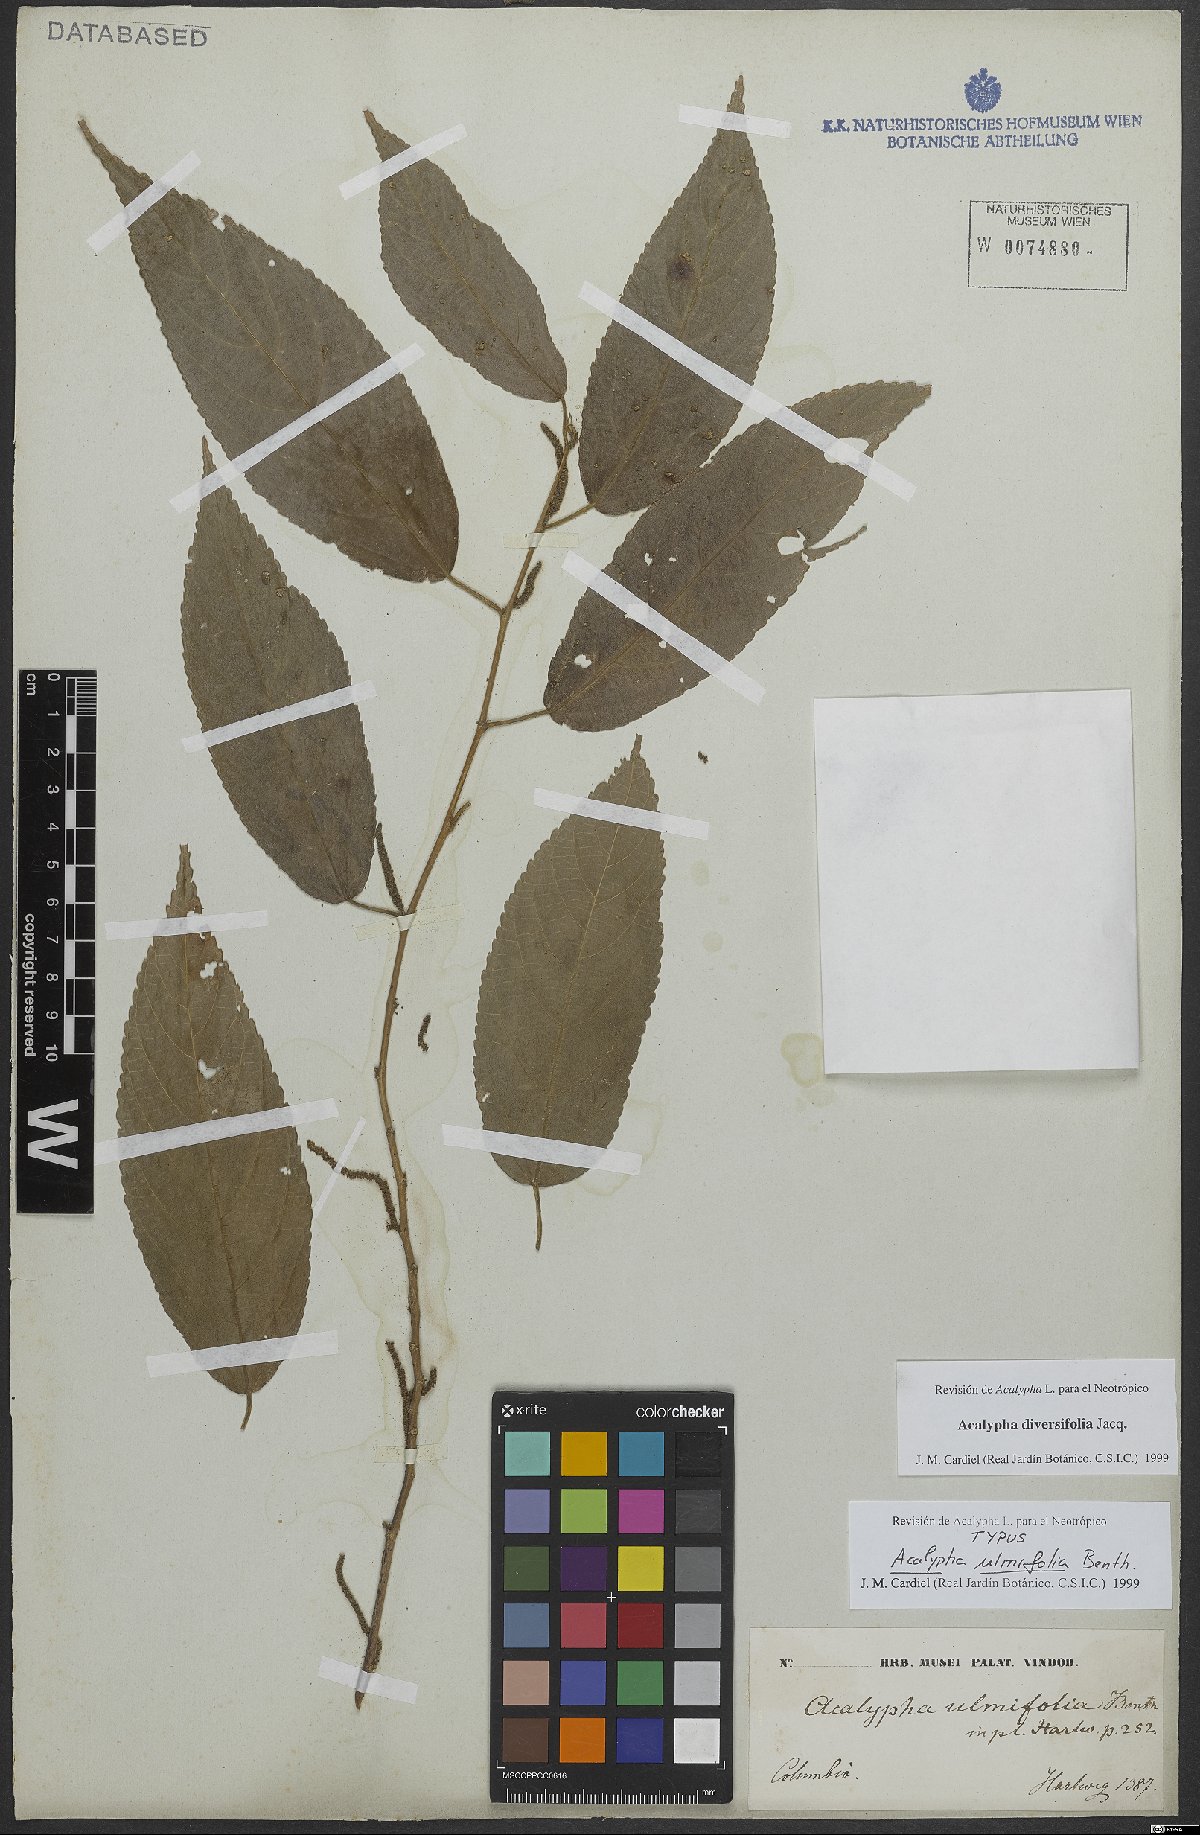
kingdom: Plantae
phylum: Tracheophyta
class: Magnoliopsida
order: Malpighiales
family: Euphorbiaceae
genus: Acalypha
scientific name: Acalypha diversifolia
